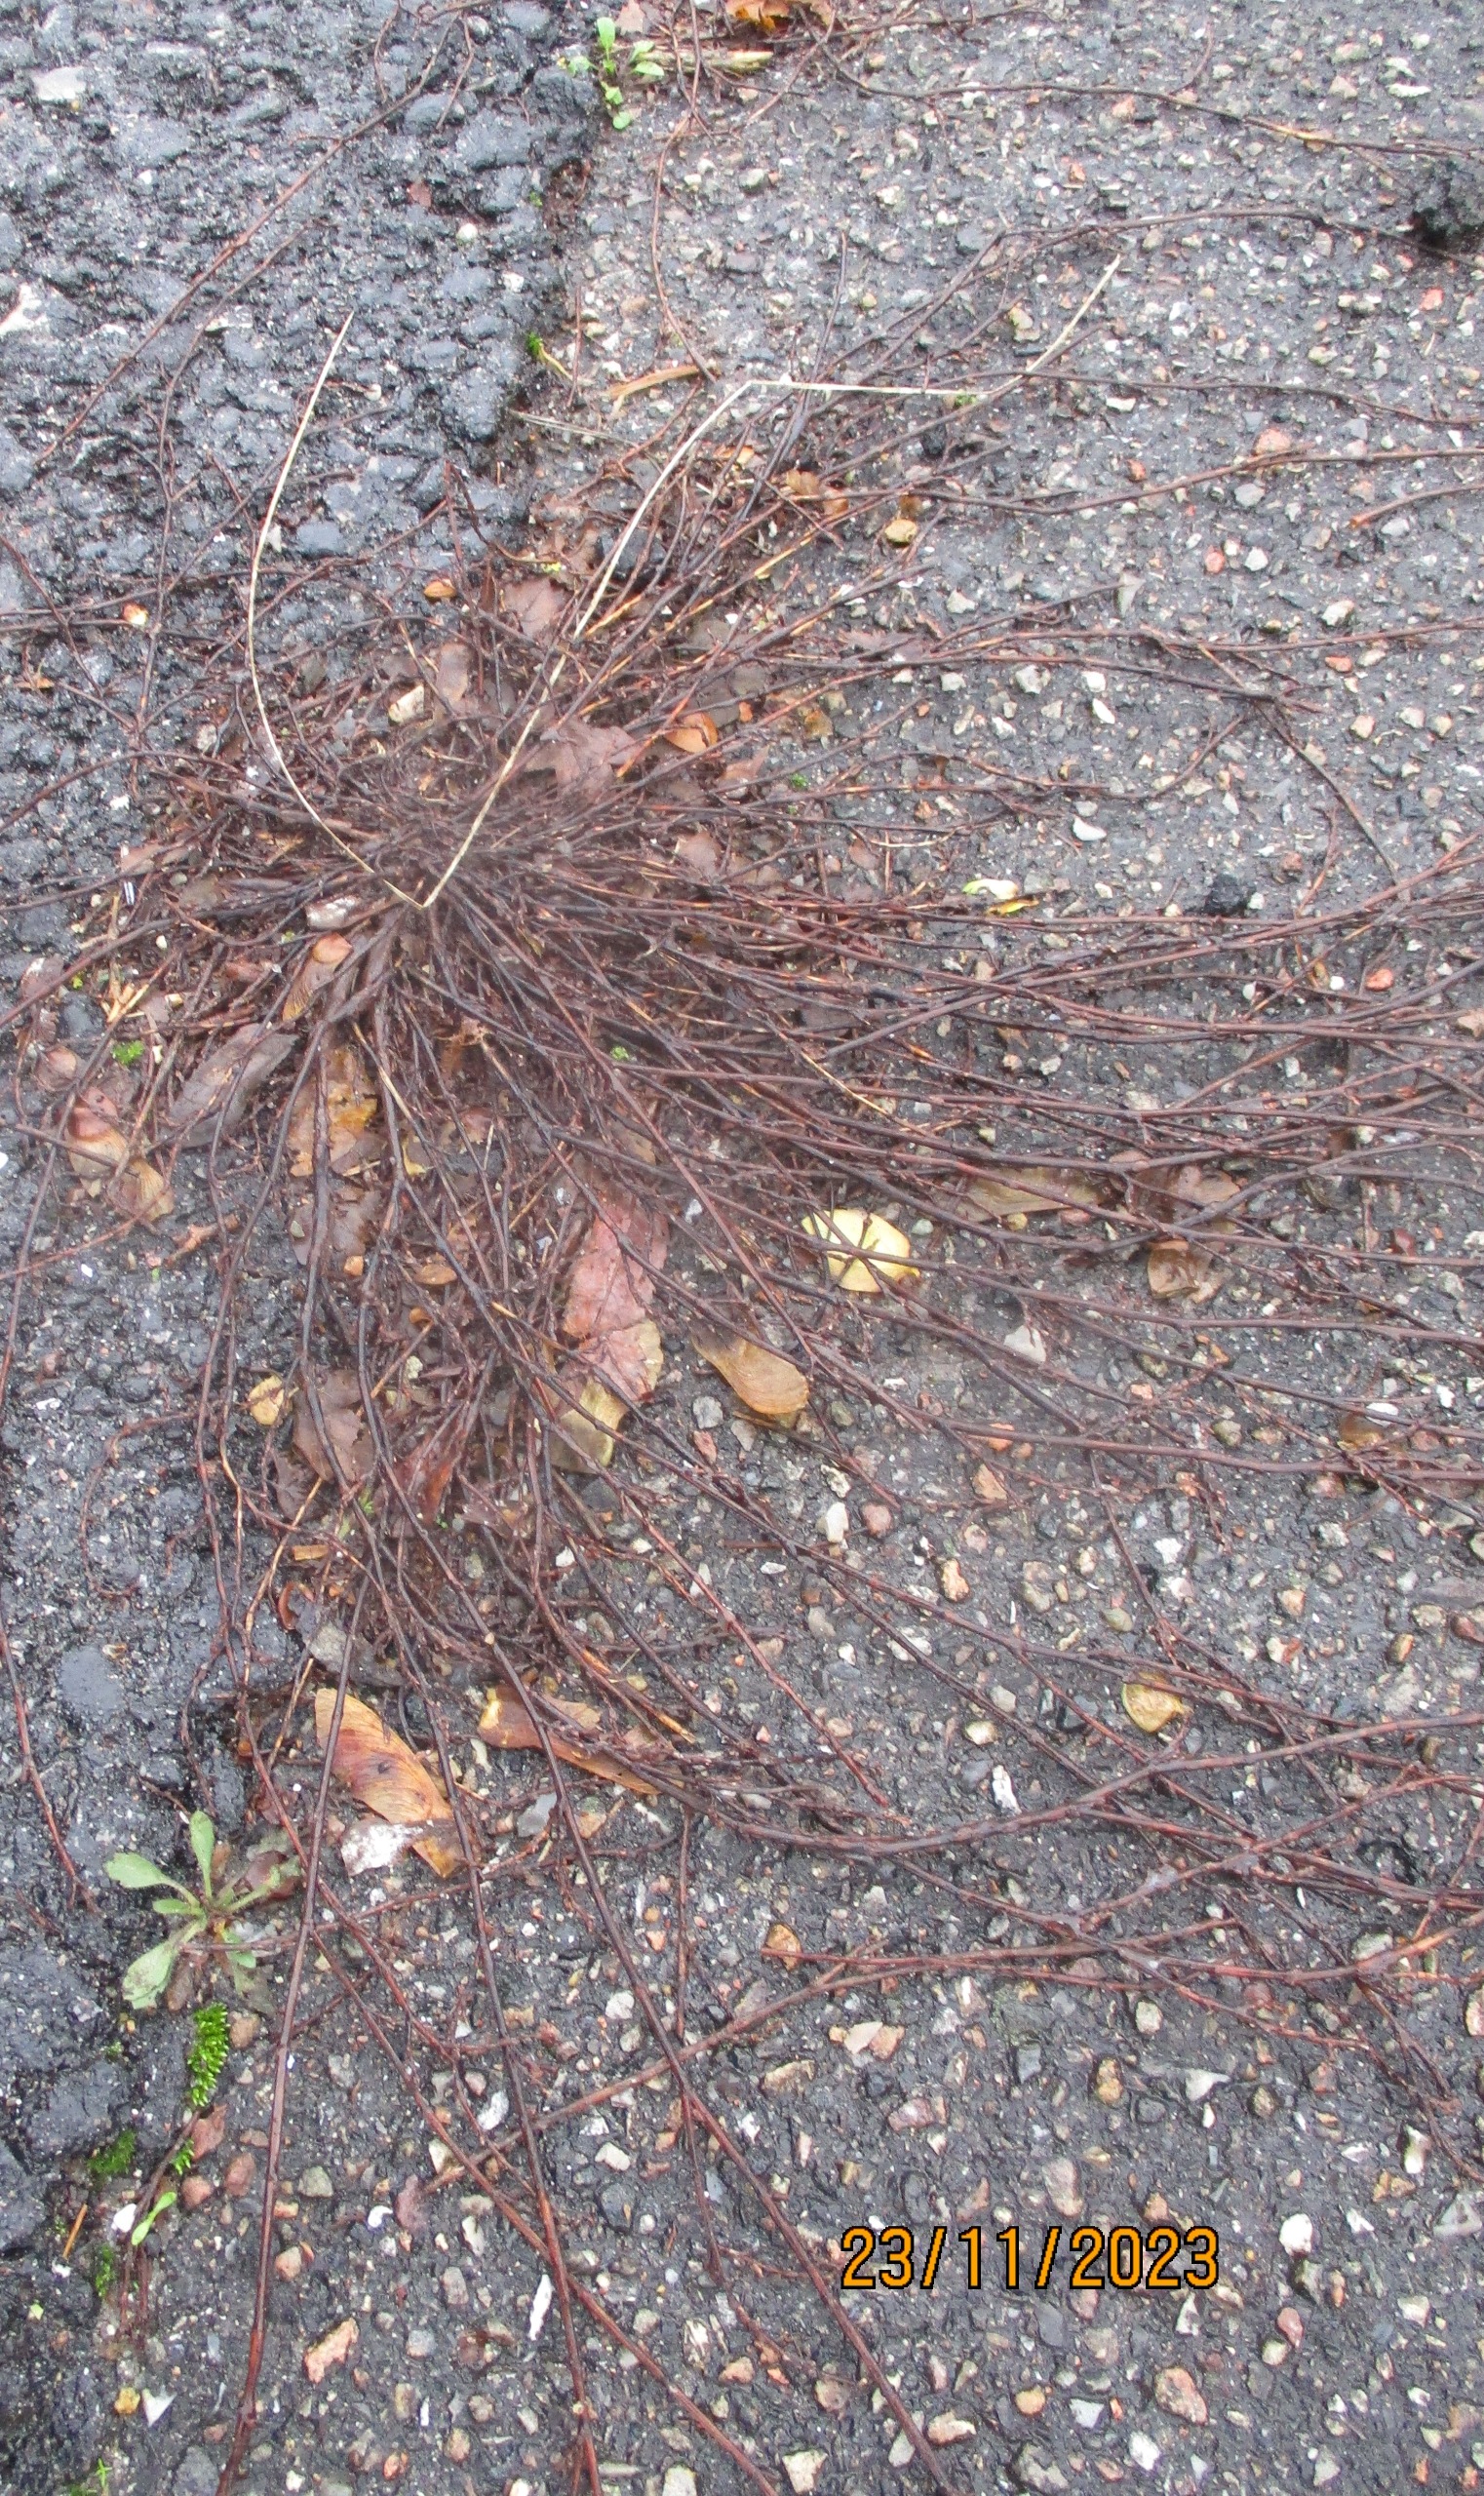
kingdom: Plantae
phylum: Tracheophyta
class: Magnoliopsida
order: Caryophyllales
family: Polygonaceae
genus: Polygonum
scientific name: Polygonum aviculare
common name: Vej-pileurt
